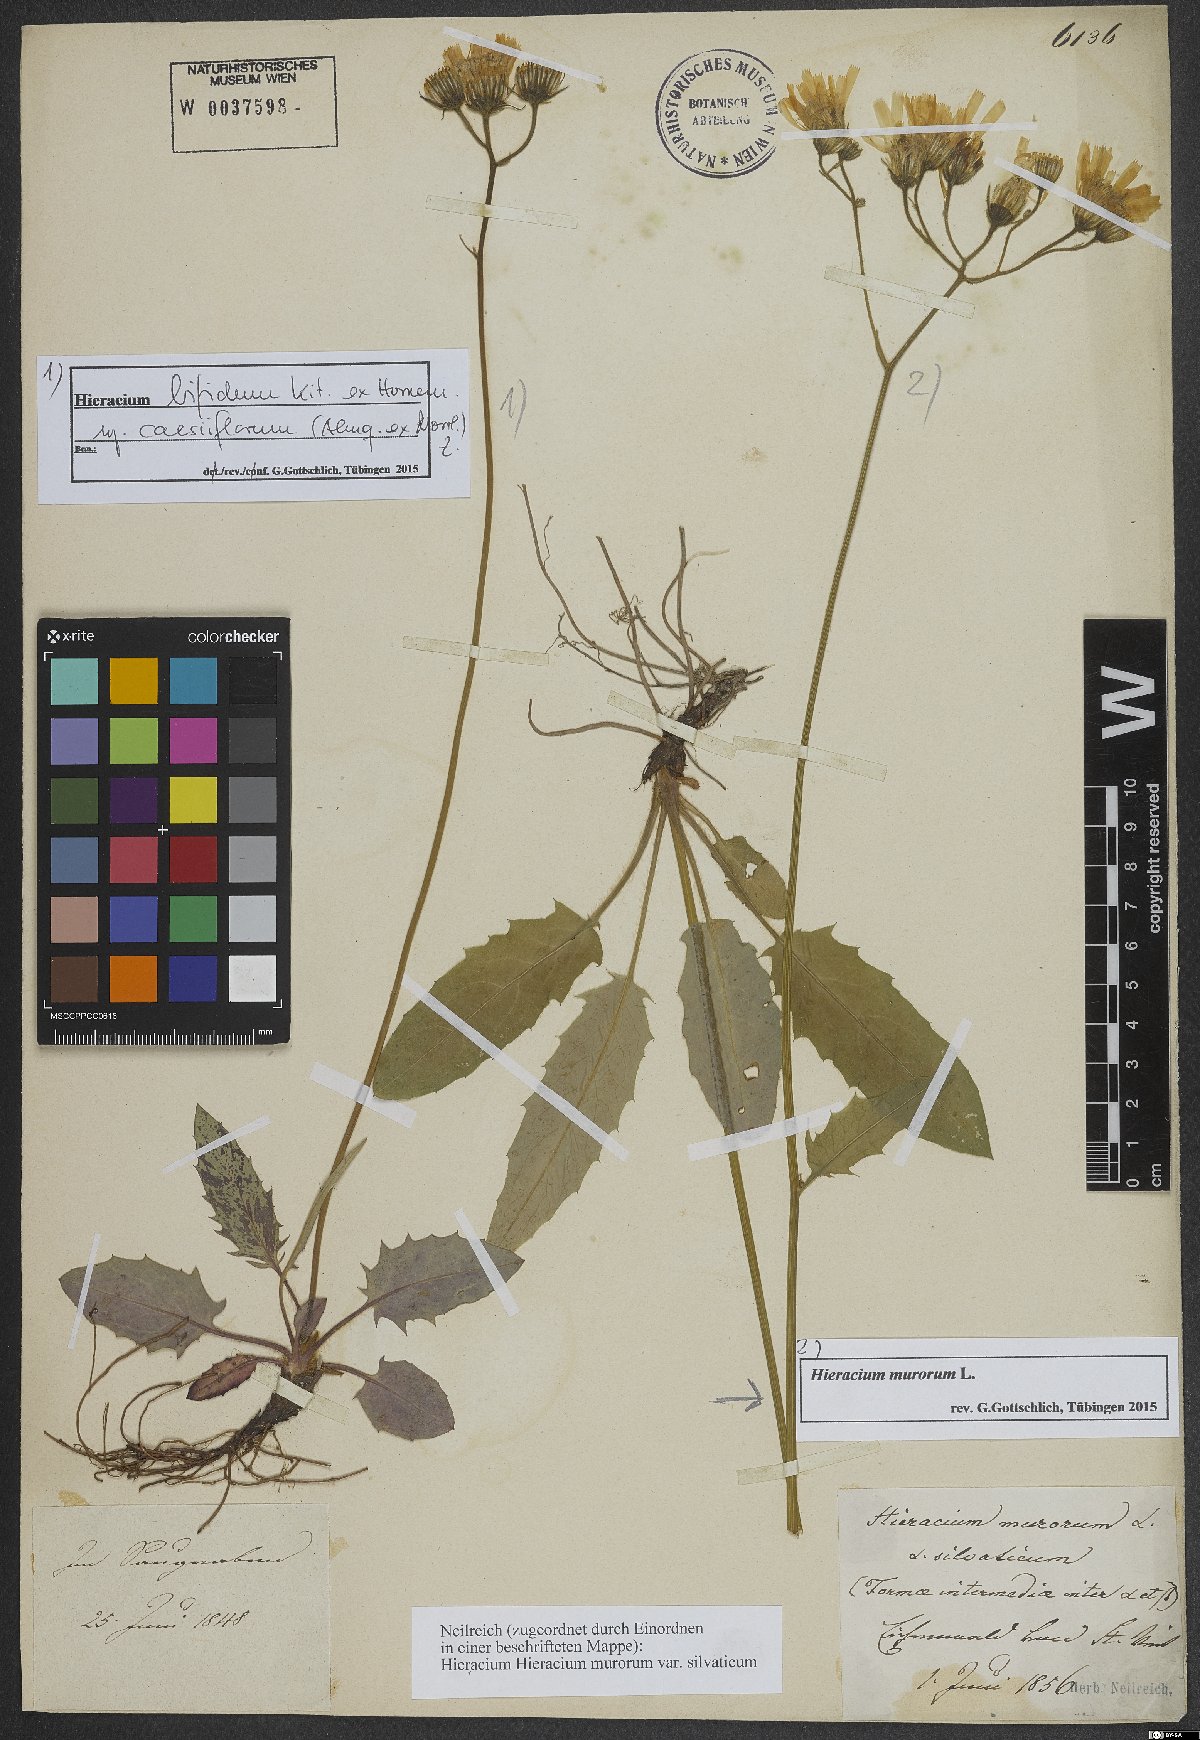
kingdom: Plantae
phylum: Tracheophyta
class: Magnoliopsida
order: Asterales
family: Asteraceae
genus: Hieracium
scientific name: Hieracium murorum
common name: Wall hawkweed
